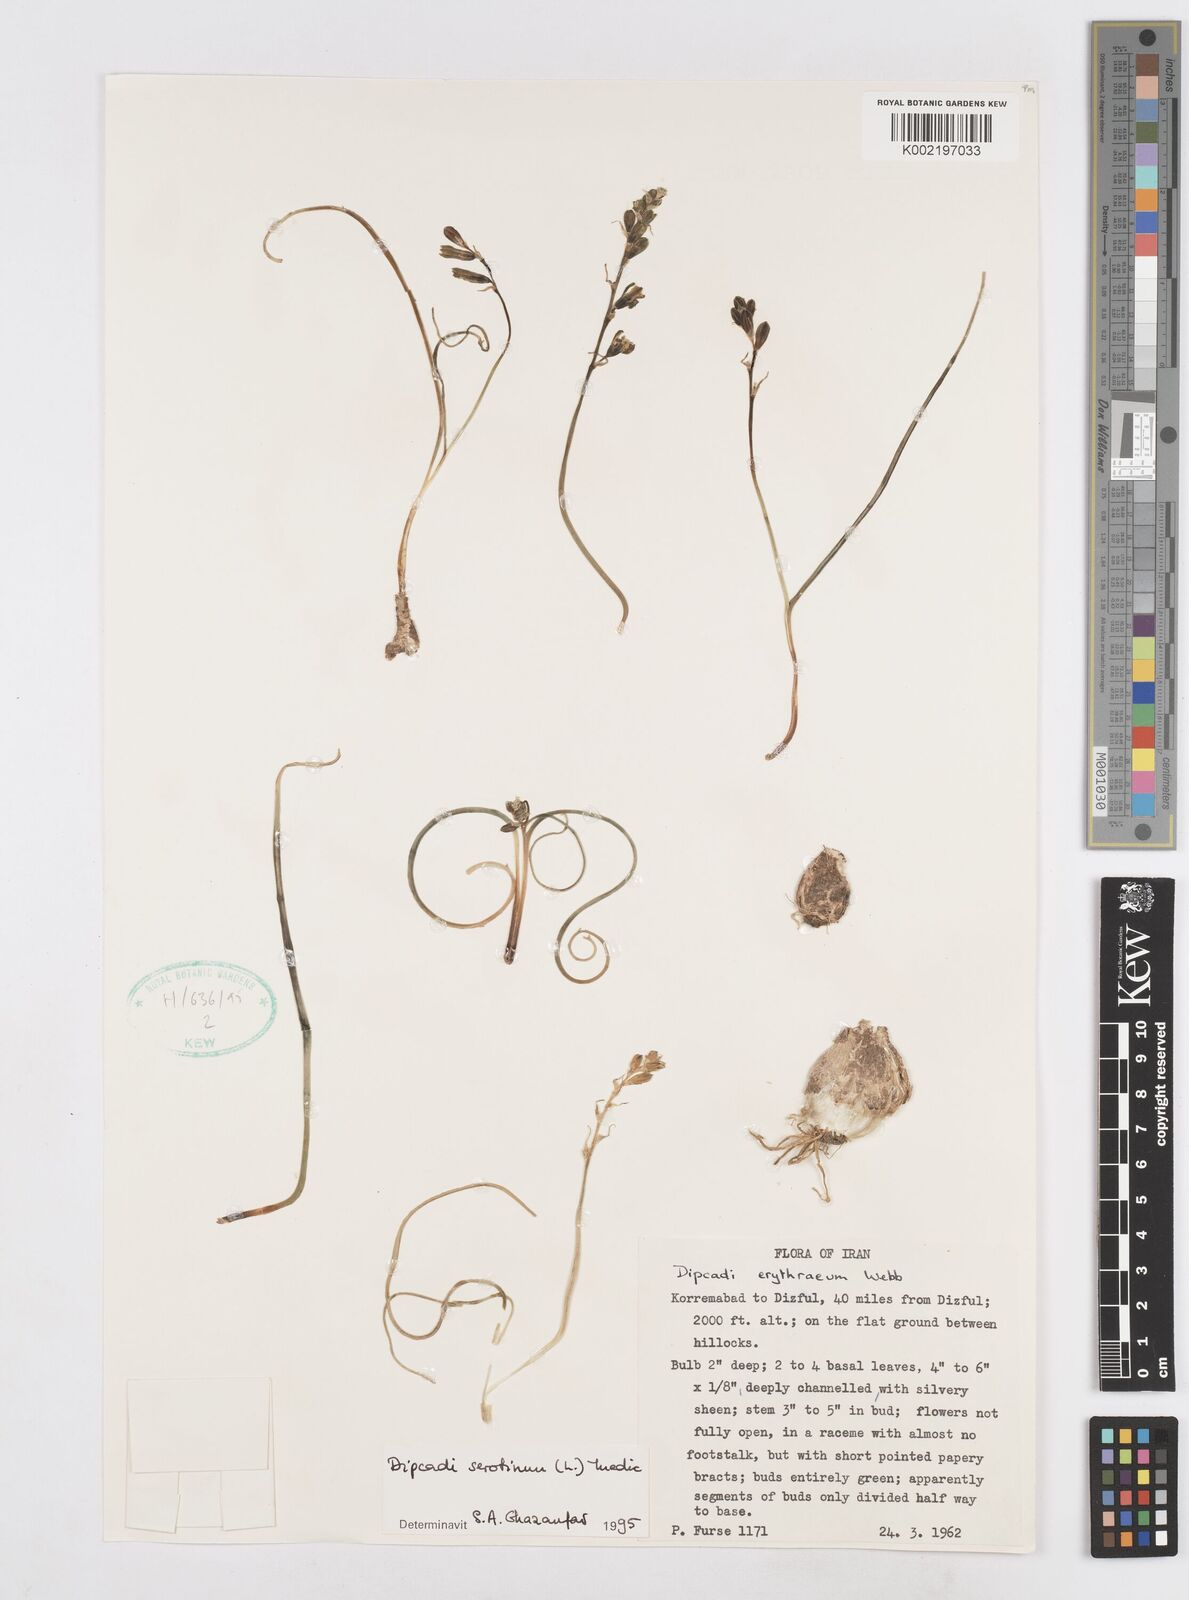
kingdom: Plantae
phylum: Tracheophyta
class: Liliopsida
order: Asparagales
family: Asparagaceae
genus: Dipcadi
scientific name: Dipcadi serotinum
